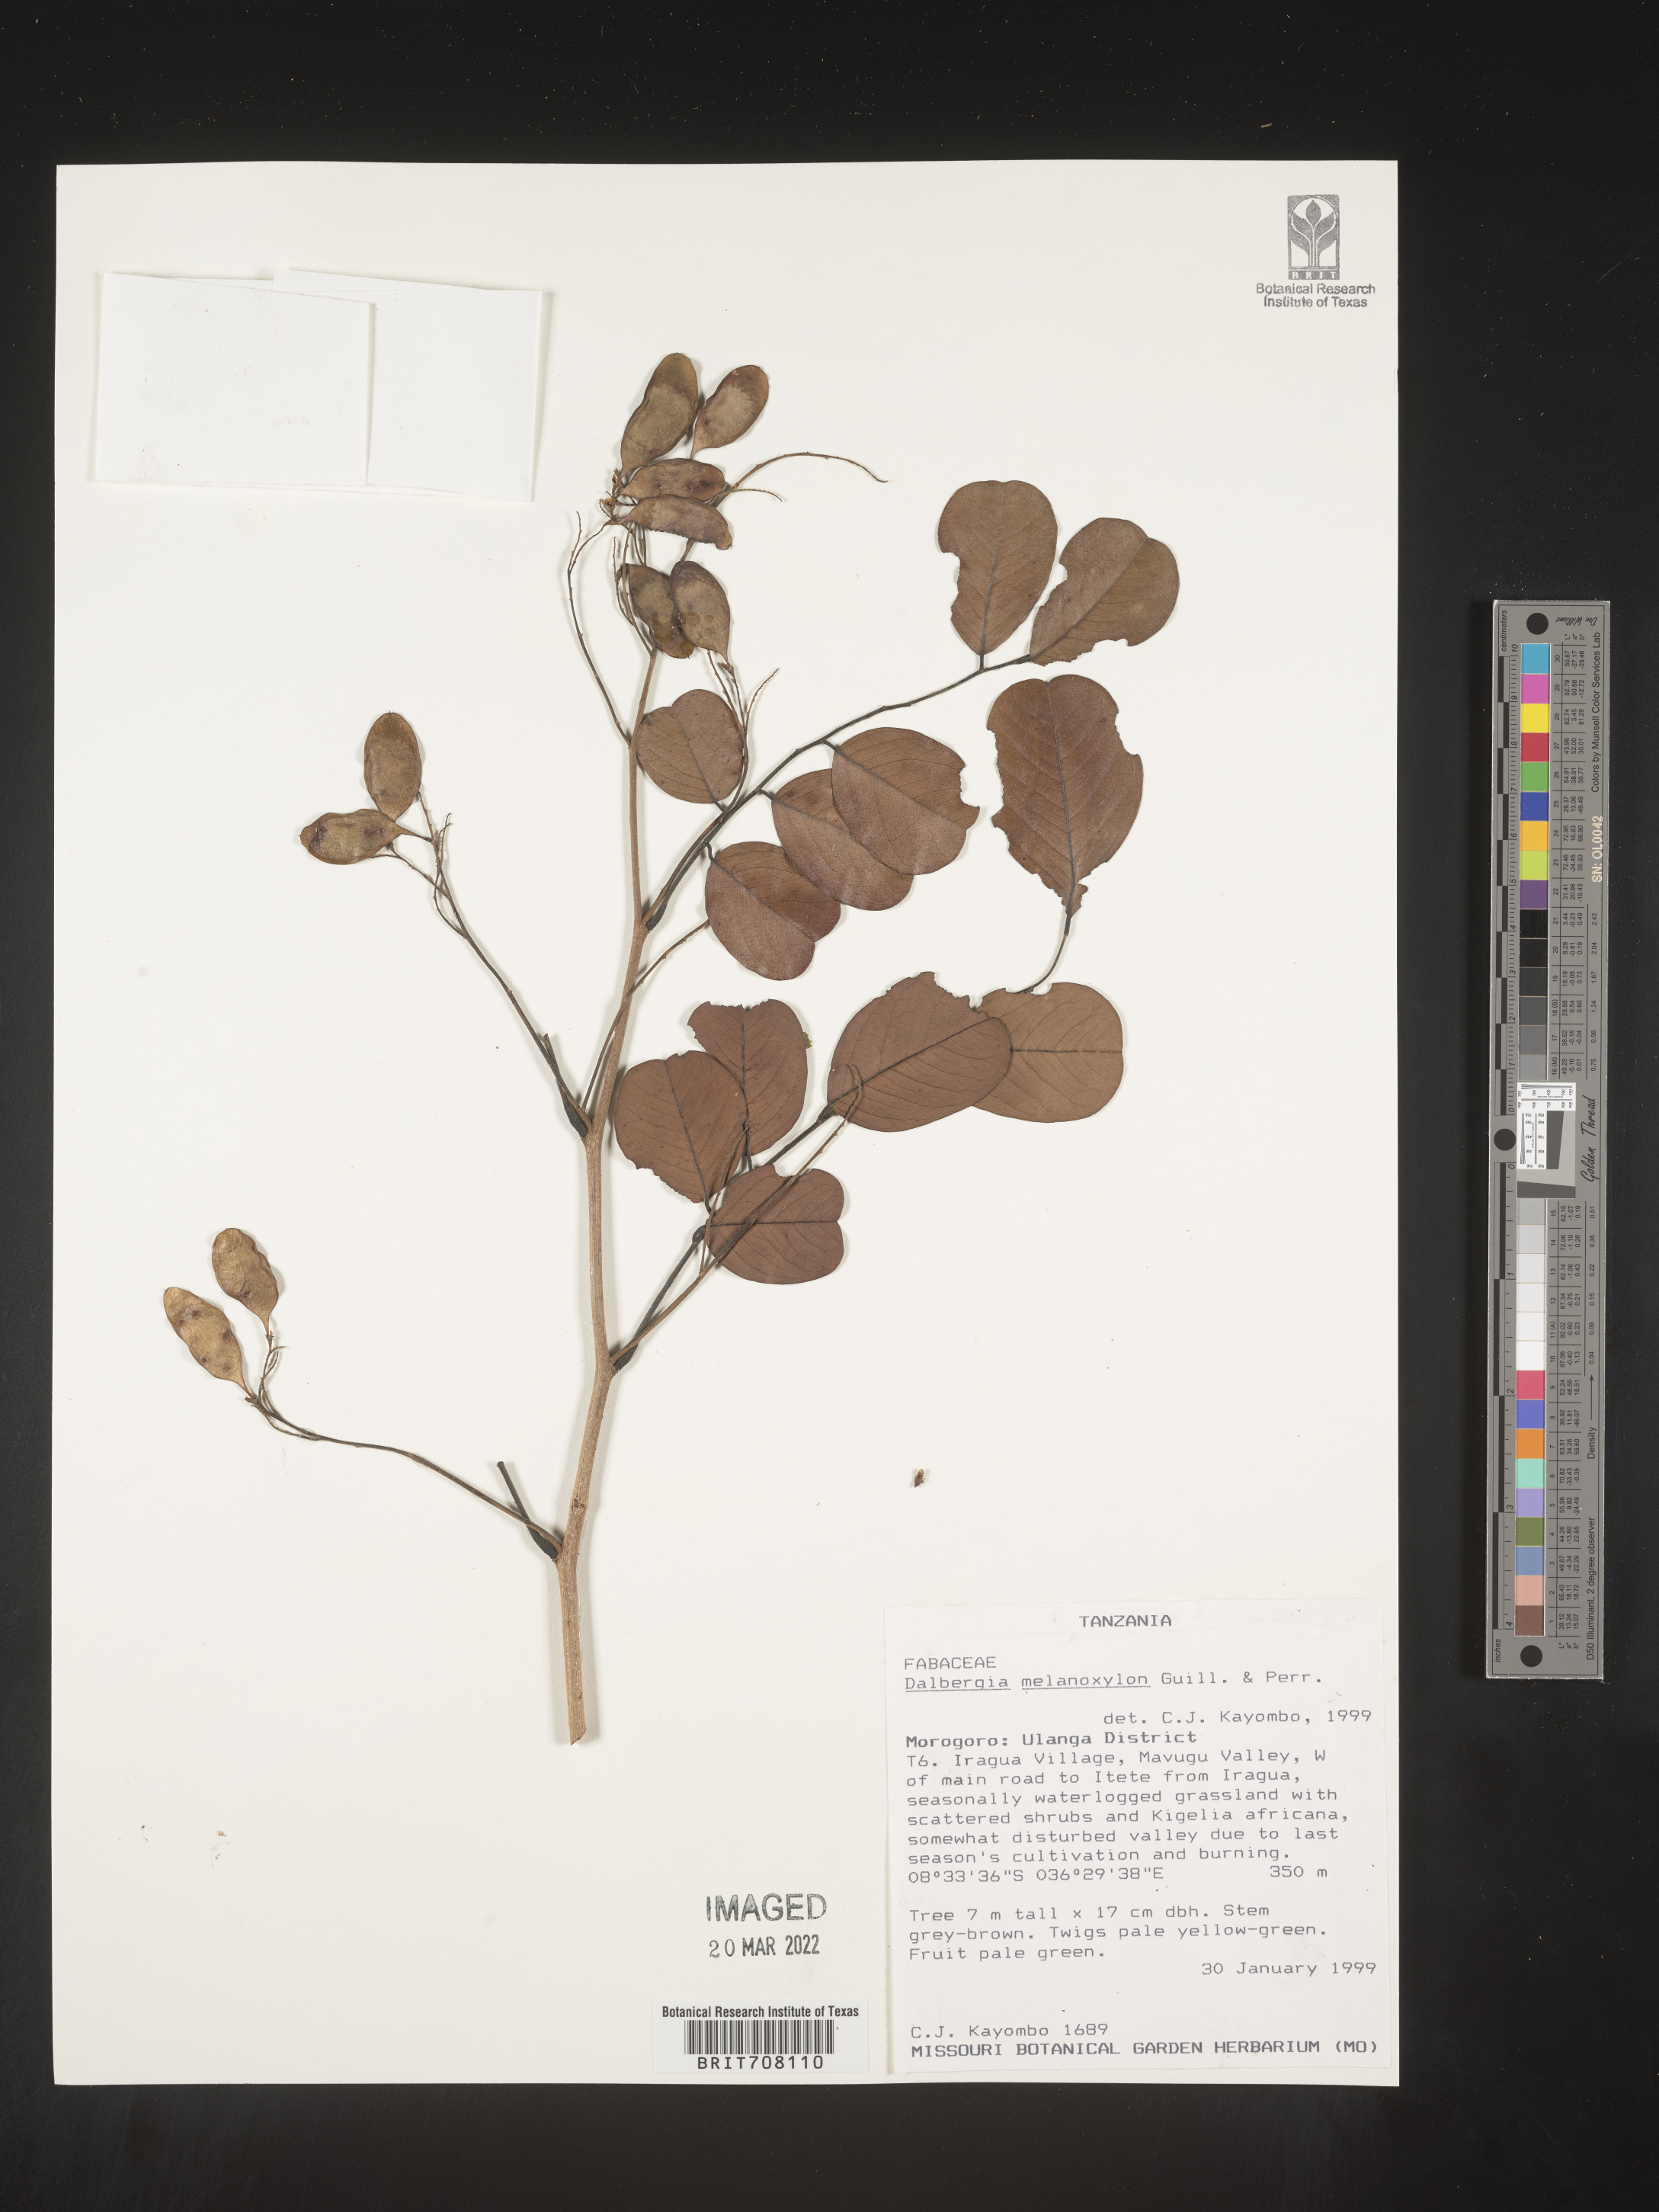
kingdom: Plantae
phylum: Tracheophyta
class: Magnoliopsida
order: Fabales
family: Fabaceae
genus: Dalbergia
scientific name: Dalbergia
